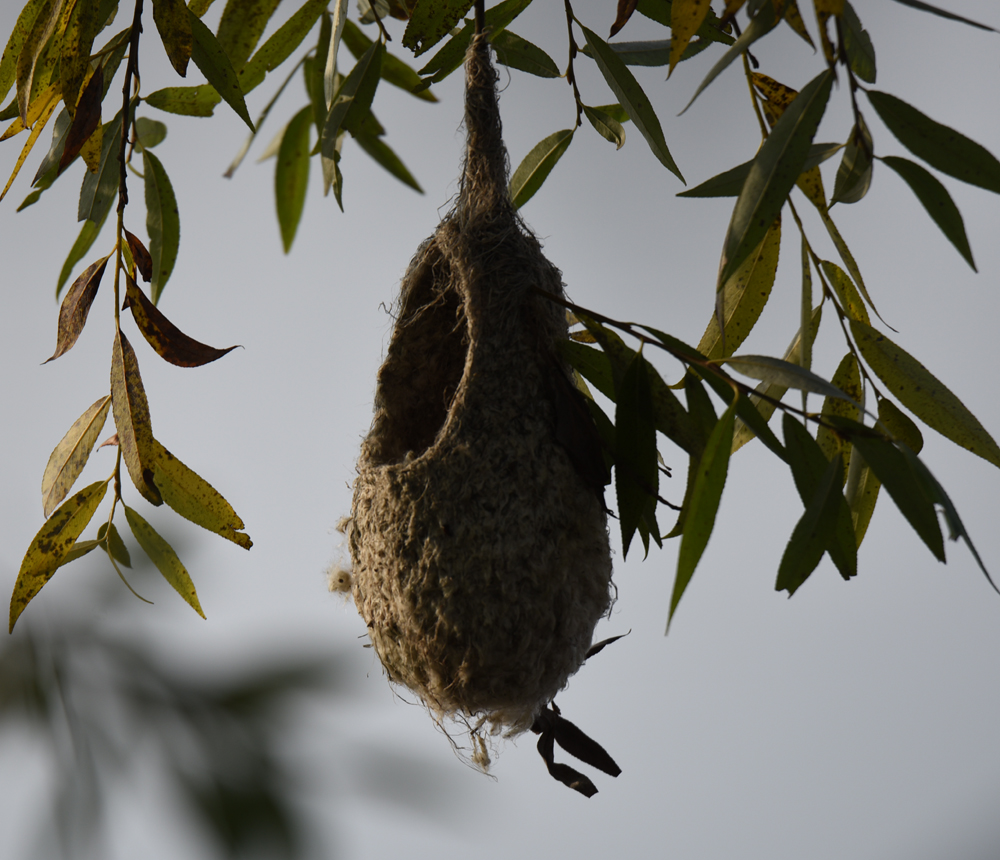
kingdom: Animalia
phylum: Chordata
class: Aves
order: Suliformes
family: Phalacrocoracidae
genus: Phalacrocorax
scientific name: Phalacrocorax carbo
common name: Great cormorant
